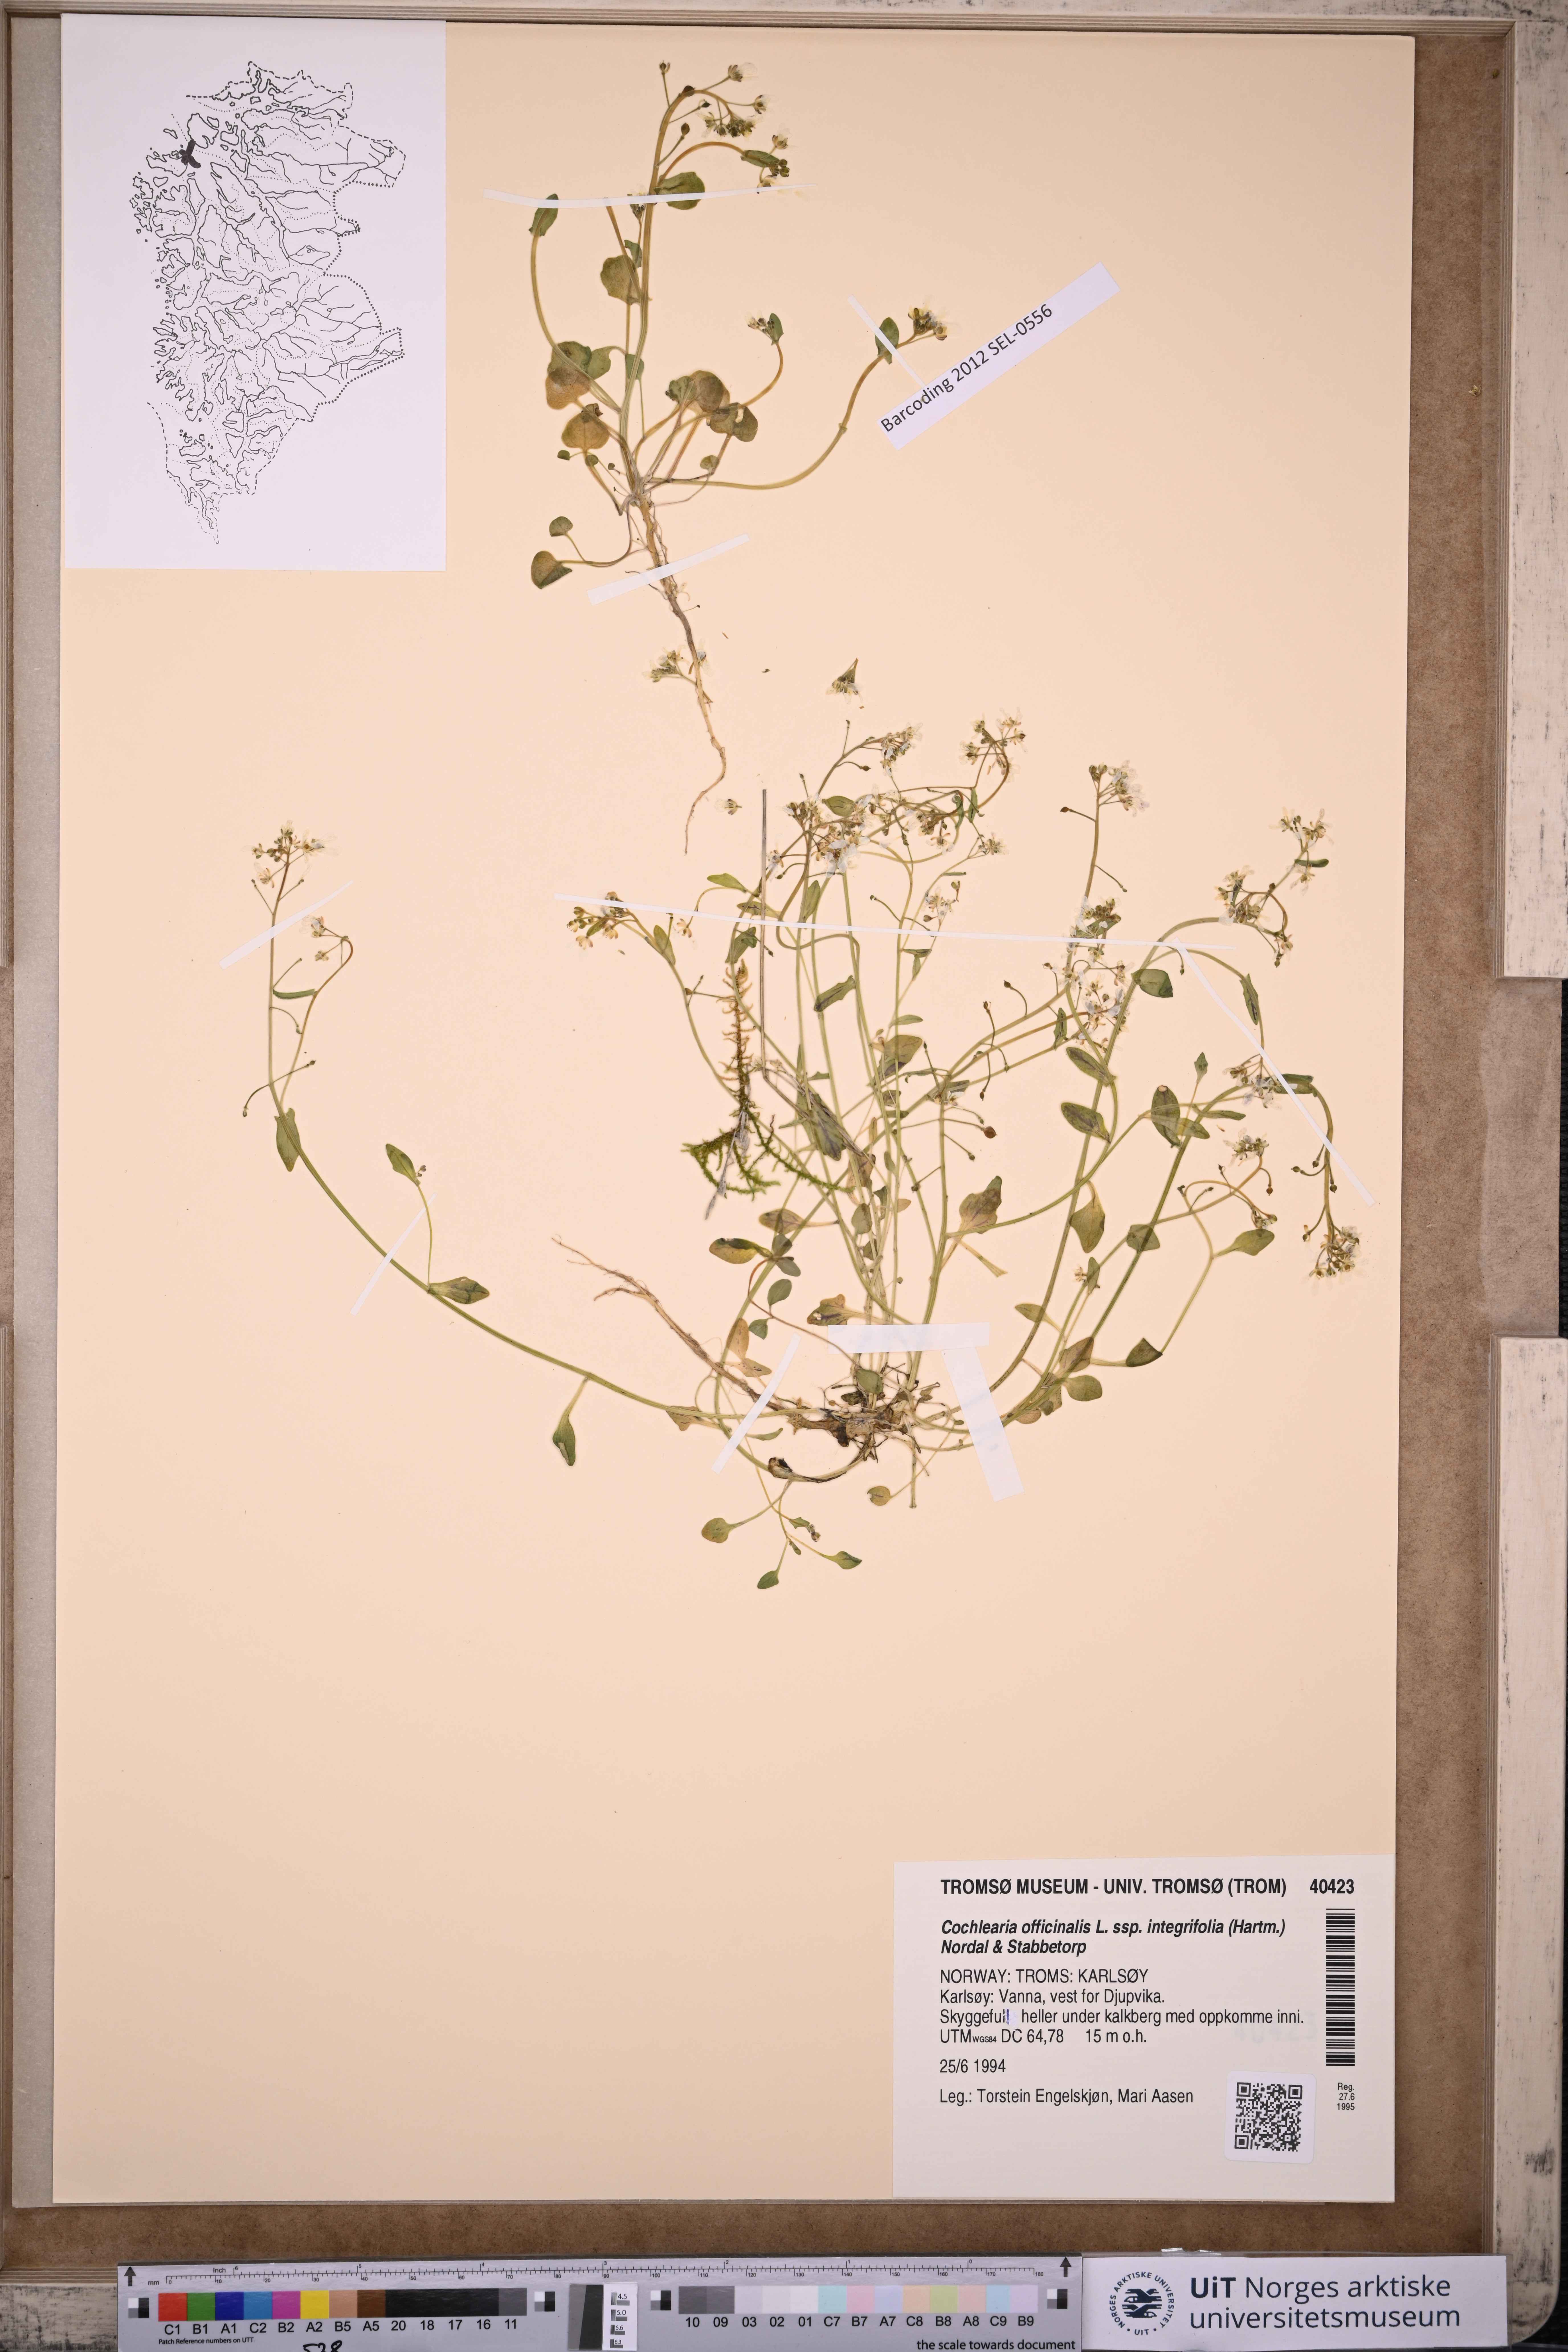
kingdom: Plantae
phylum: Tracheophyta
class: Magnoliopsida
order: Brassicales
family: Brassicaceae
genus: Cochlearia
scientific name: Cochlearia officinalis
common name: Scurvy-grass
